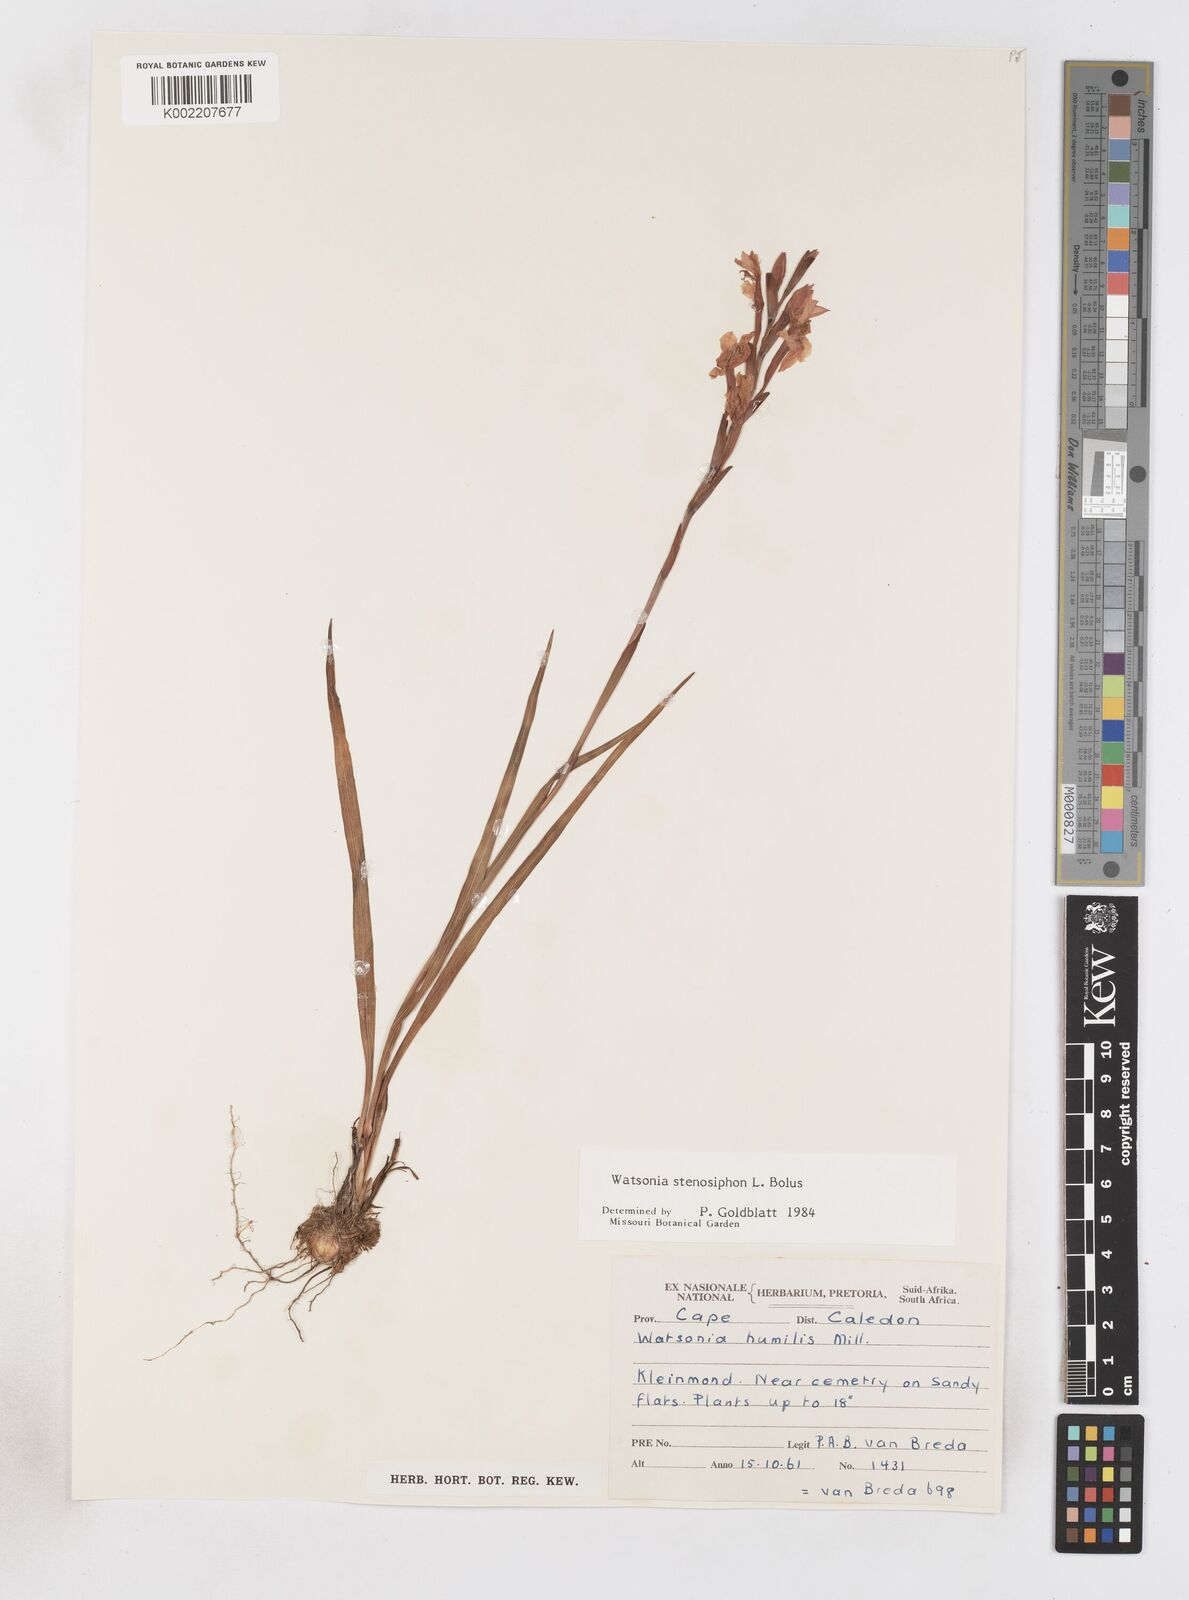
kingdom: Plantae
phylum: Tracheophyta
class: Liliopsida
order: Asparagales
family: Iridaceae
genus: Watsonia
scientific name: Watsonia stenosiphon
